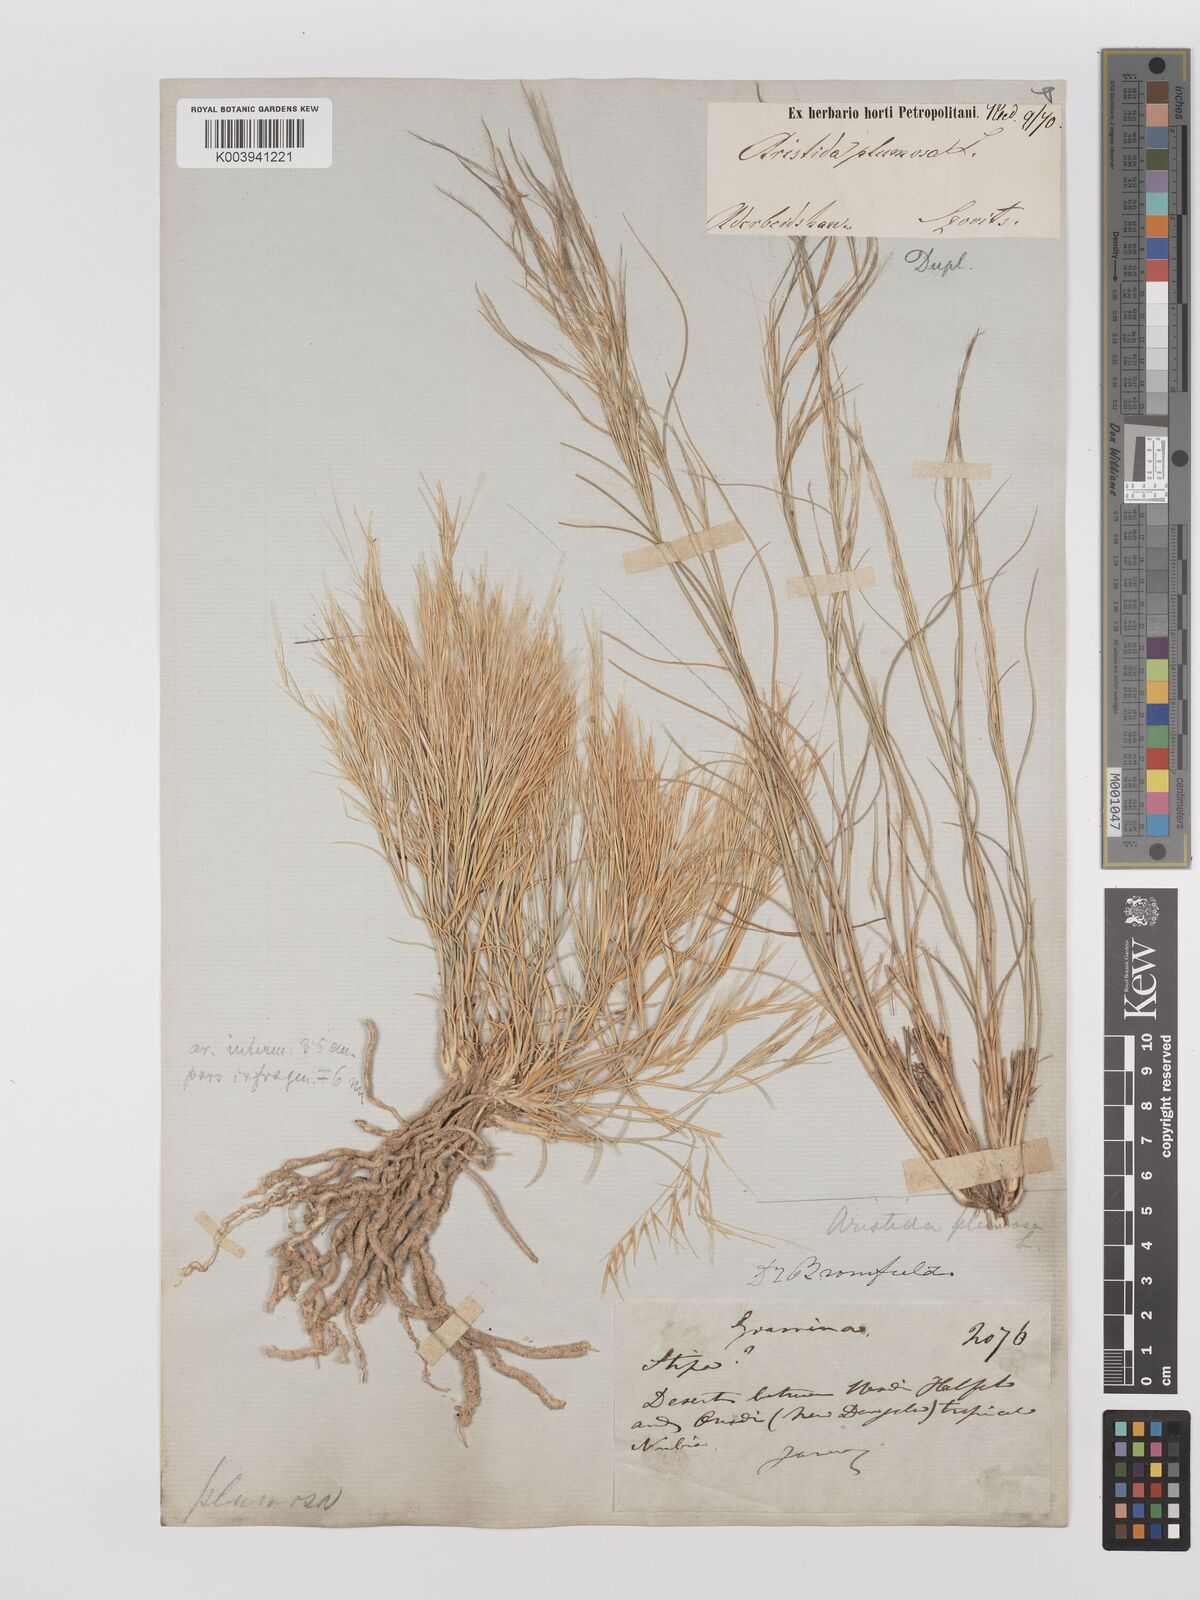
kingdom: Plantae
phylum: Tracheophyta
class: Liliopsida
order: Poales
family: Poaceae
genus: Stipagrostis
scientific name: Stipagrostis plumosa
